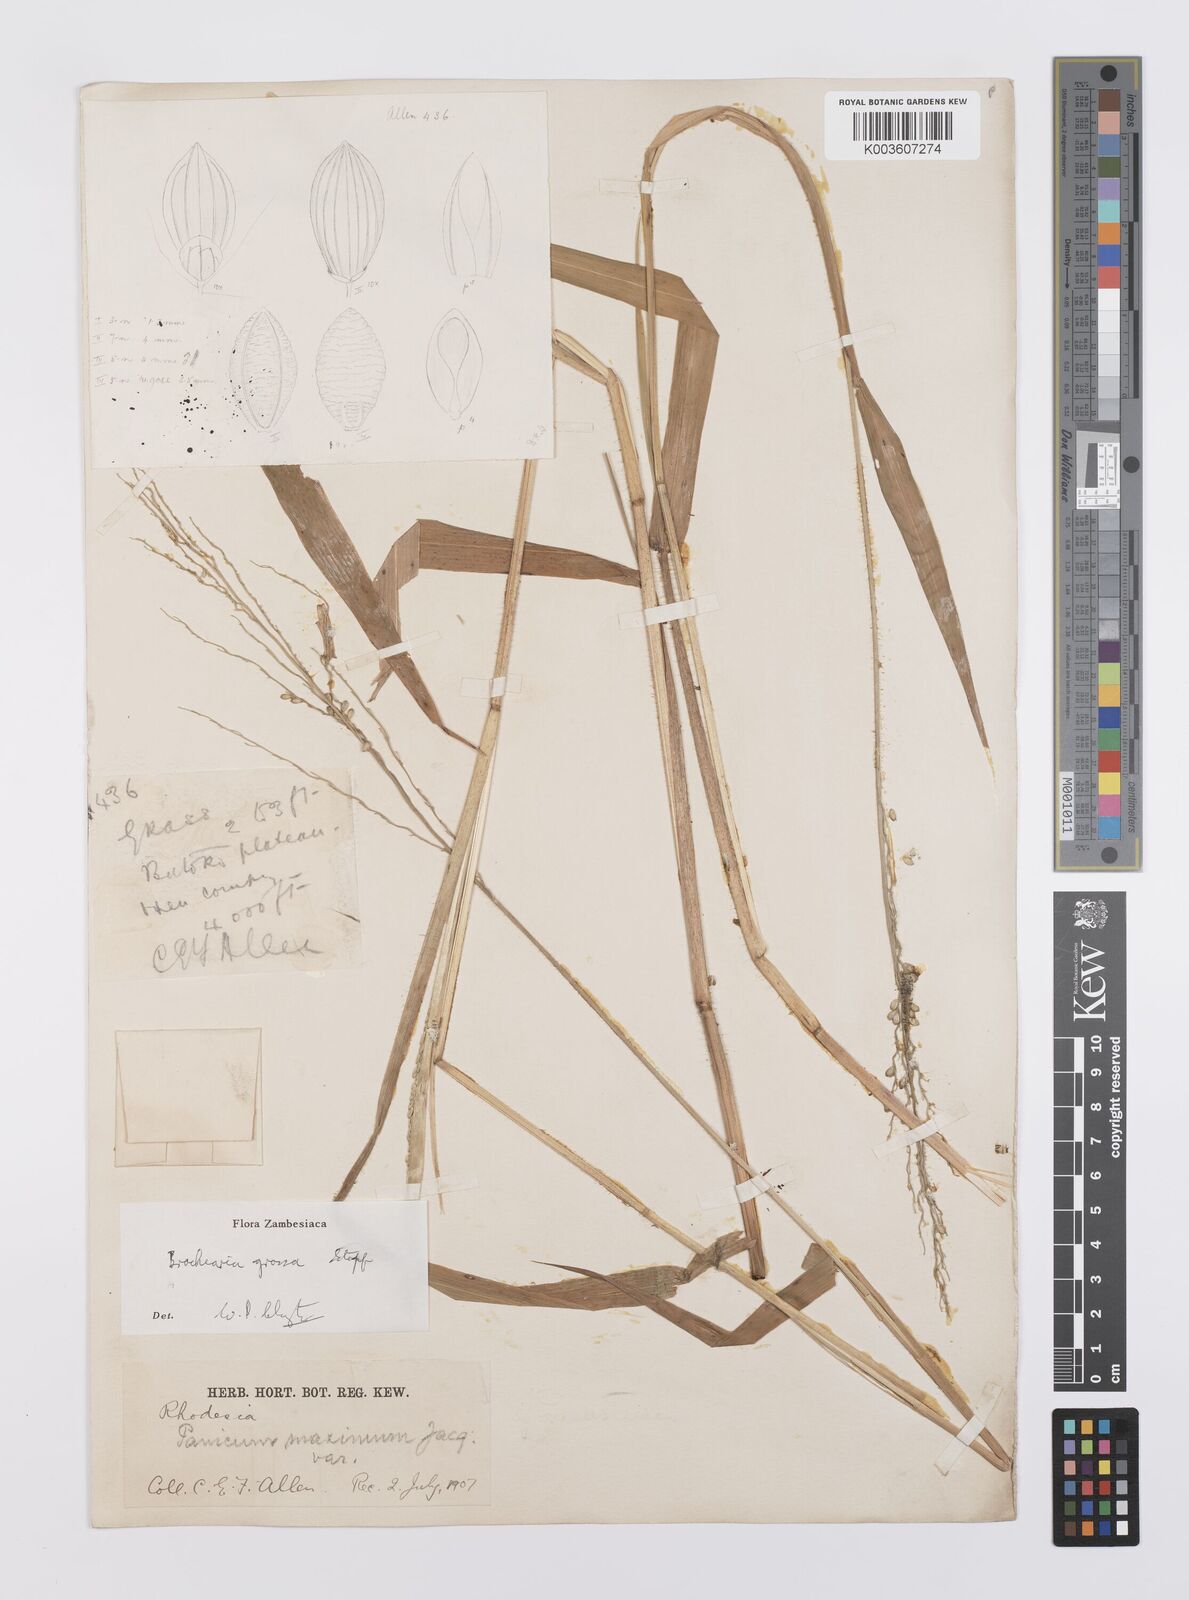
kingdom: Plantae
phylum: Tracheophyta
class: Liliopsida
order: Poales
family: Poaceae
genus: Urochloa
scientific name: Urochloa Brachiaria grossa
